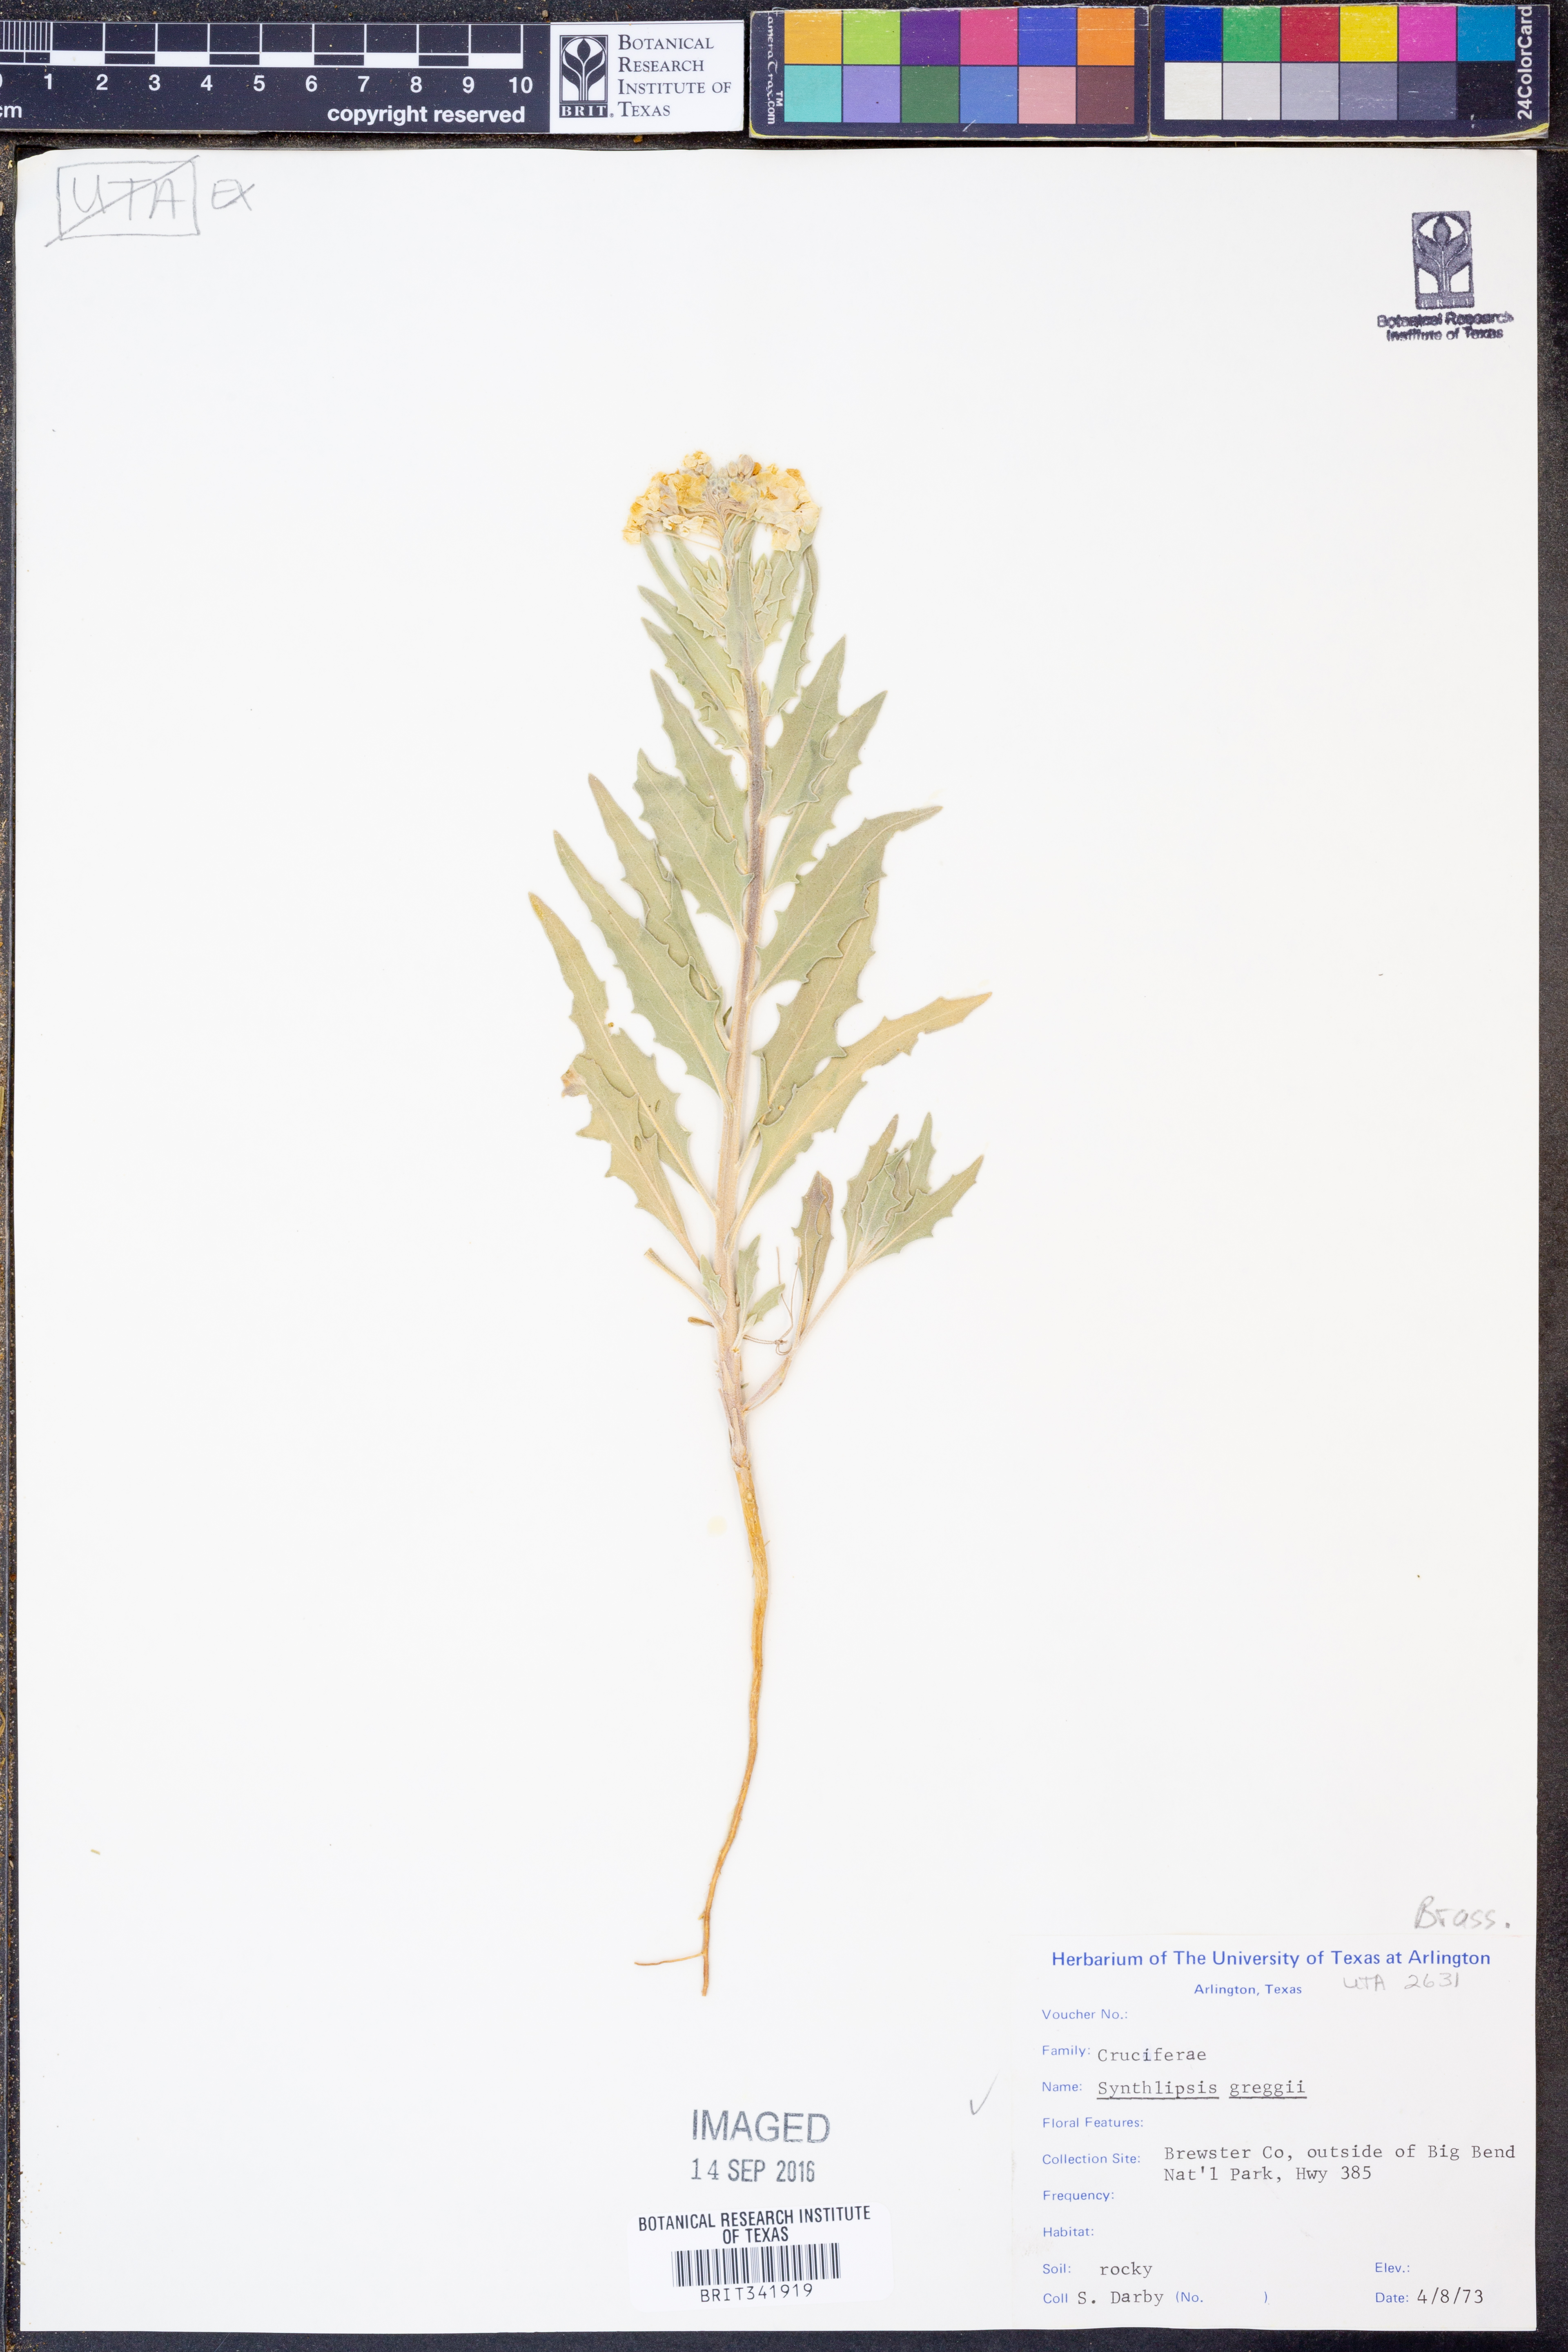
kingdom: Plantae
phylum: Tracheophyta
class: Magnoliopsida
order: Brassicales
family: Brassicaceae
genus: Synthlipsis
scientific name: Synthlipsis greggii
